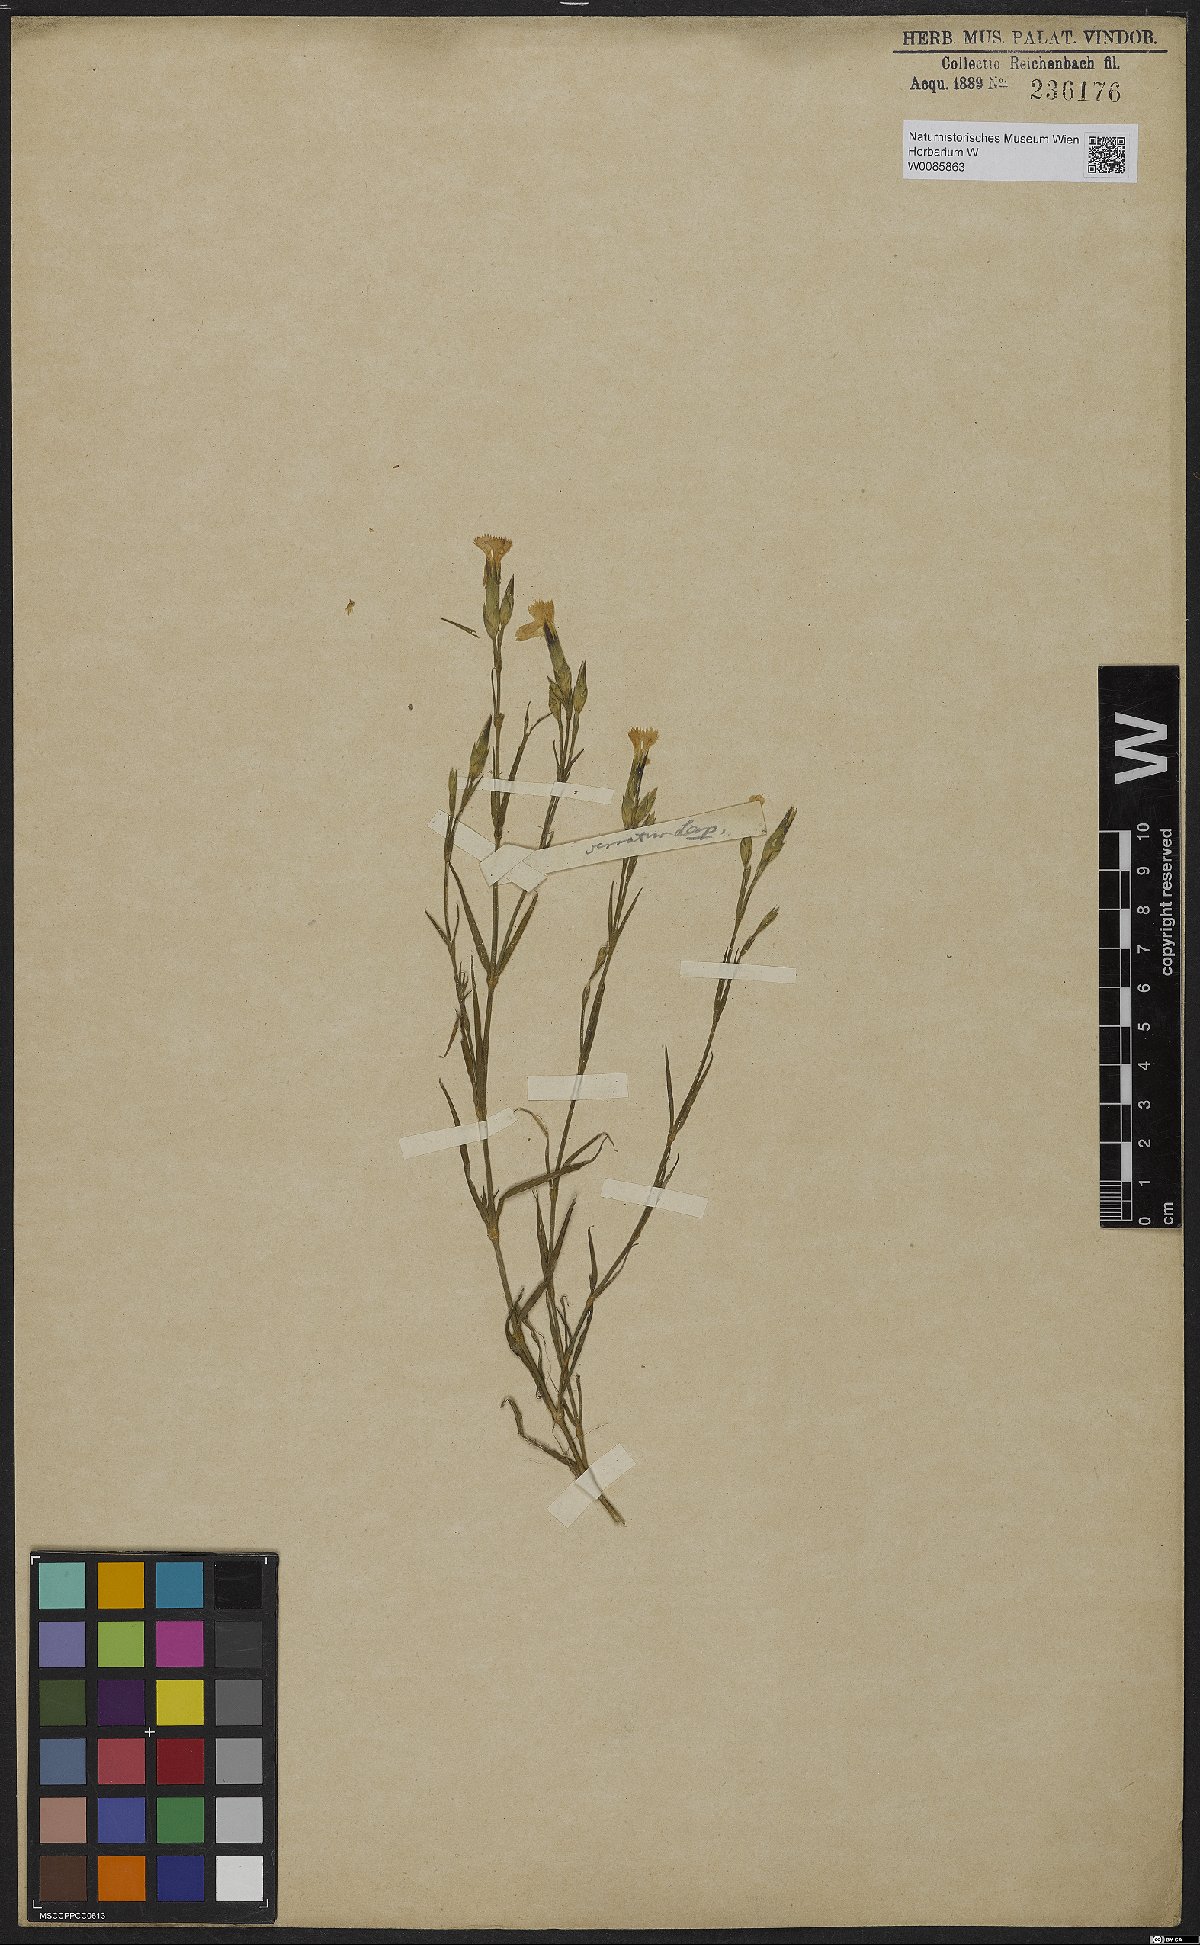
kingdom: Plantae
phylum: Tracheophyta
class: Magnoliopsida
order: Caryophyllales
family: Caryophyllaceae
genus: Dianthus
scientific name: Dianthus pungens
